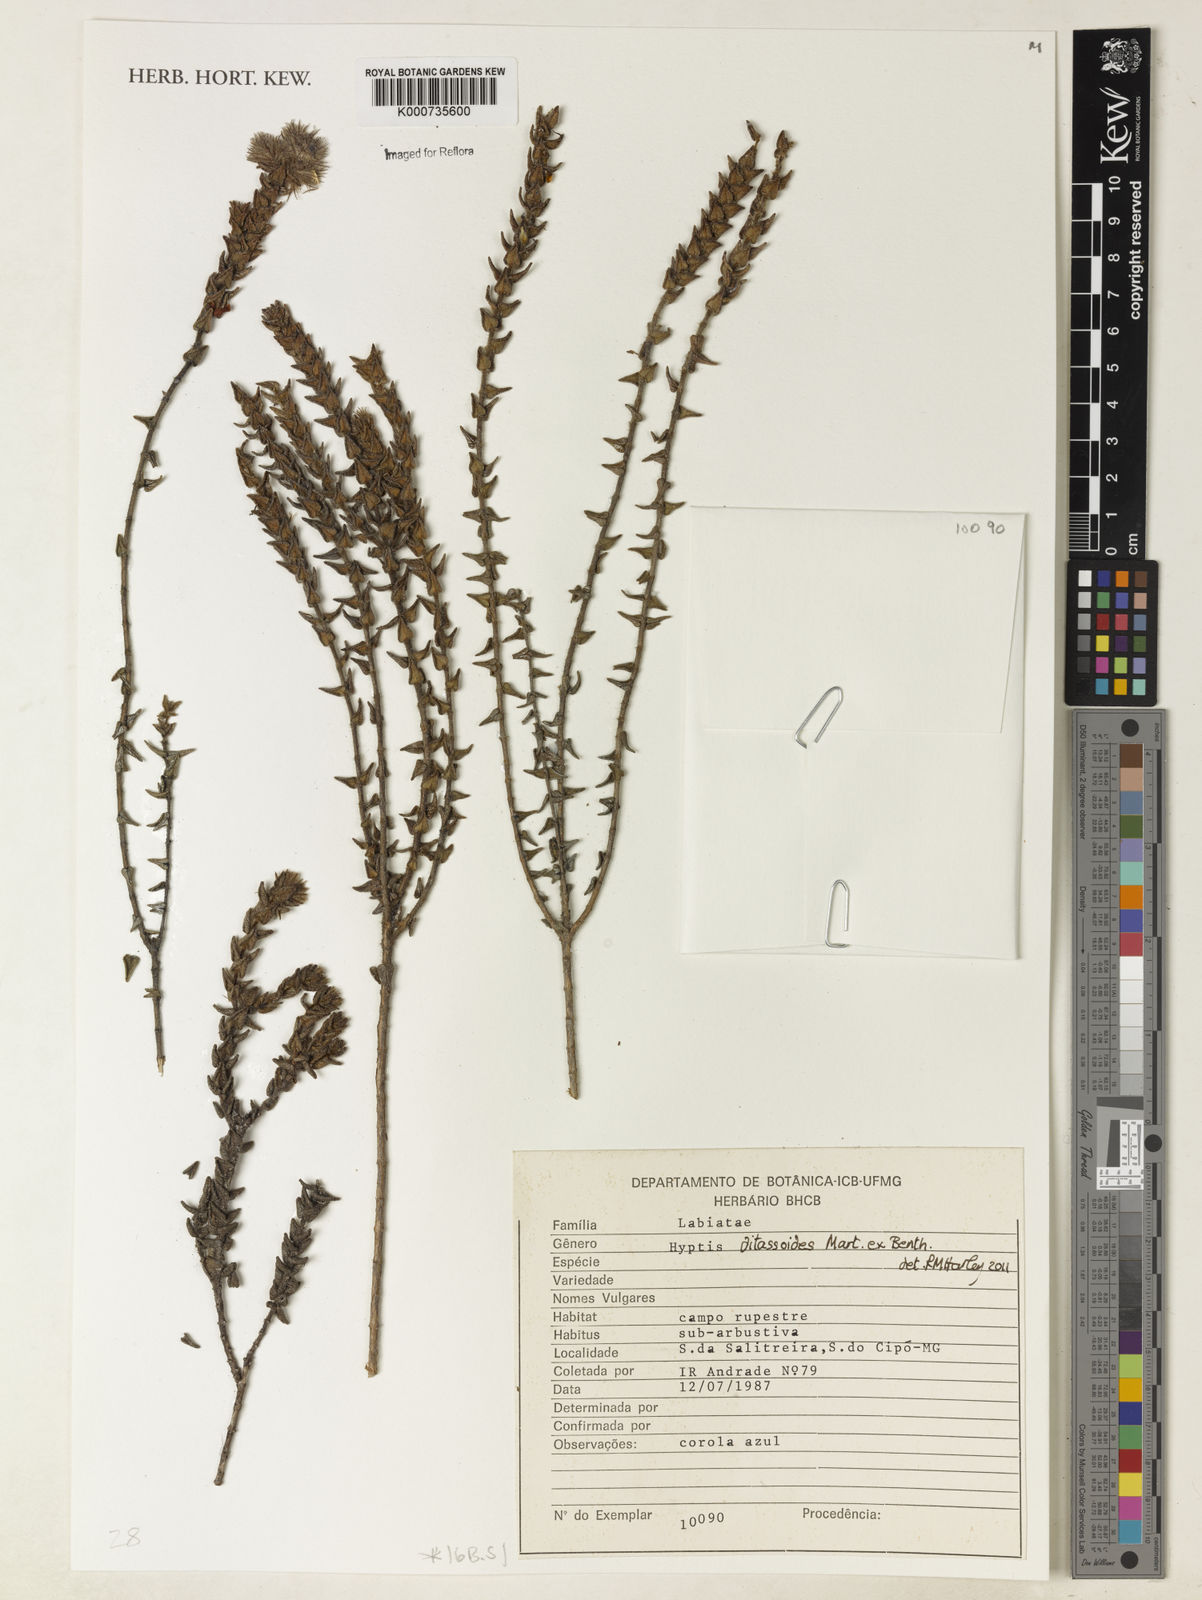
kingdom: Plantae
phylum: Tracheophyta
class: Magnoliopsida
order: Lamiales
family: Lamiaceae
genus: Hyptis
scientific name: Hyptis ditassoides
